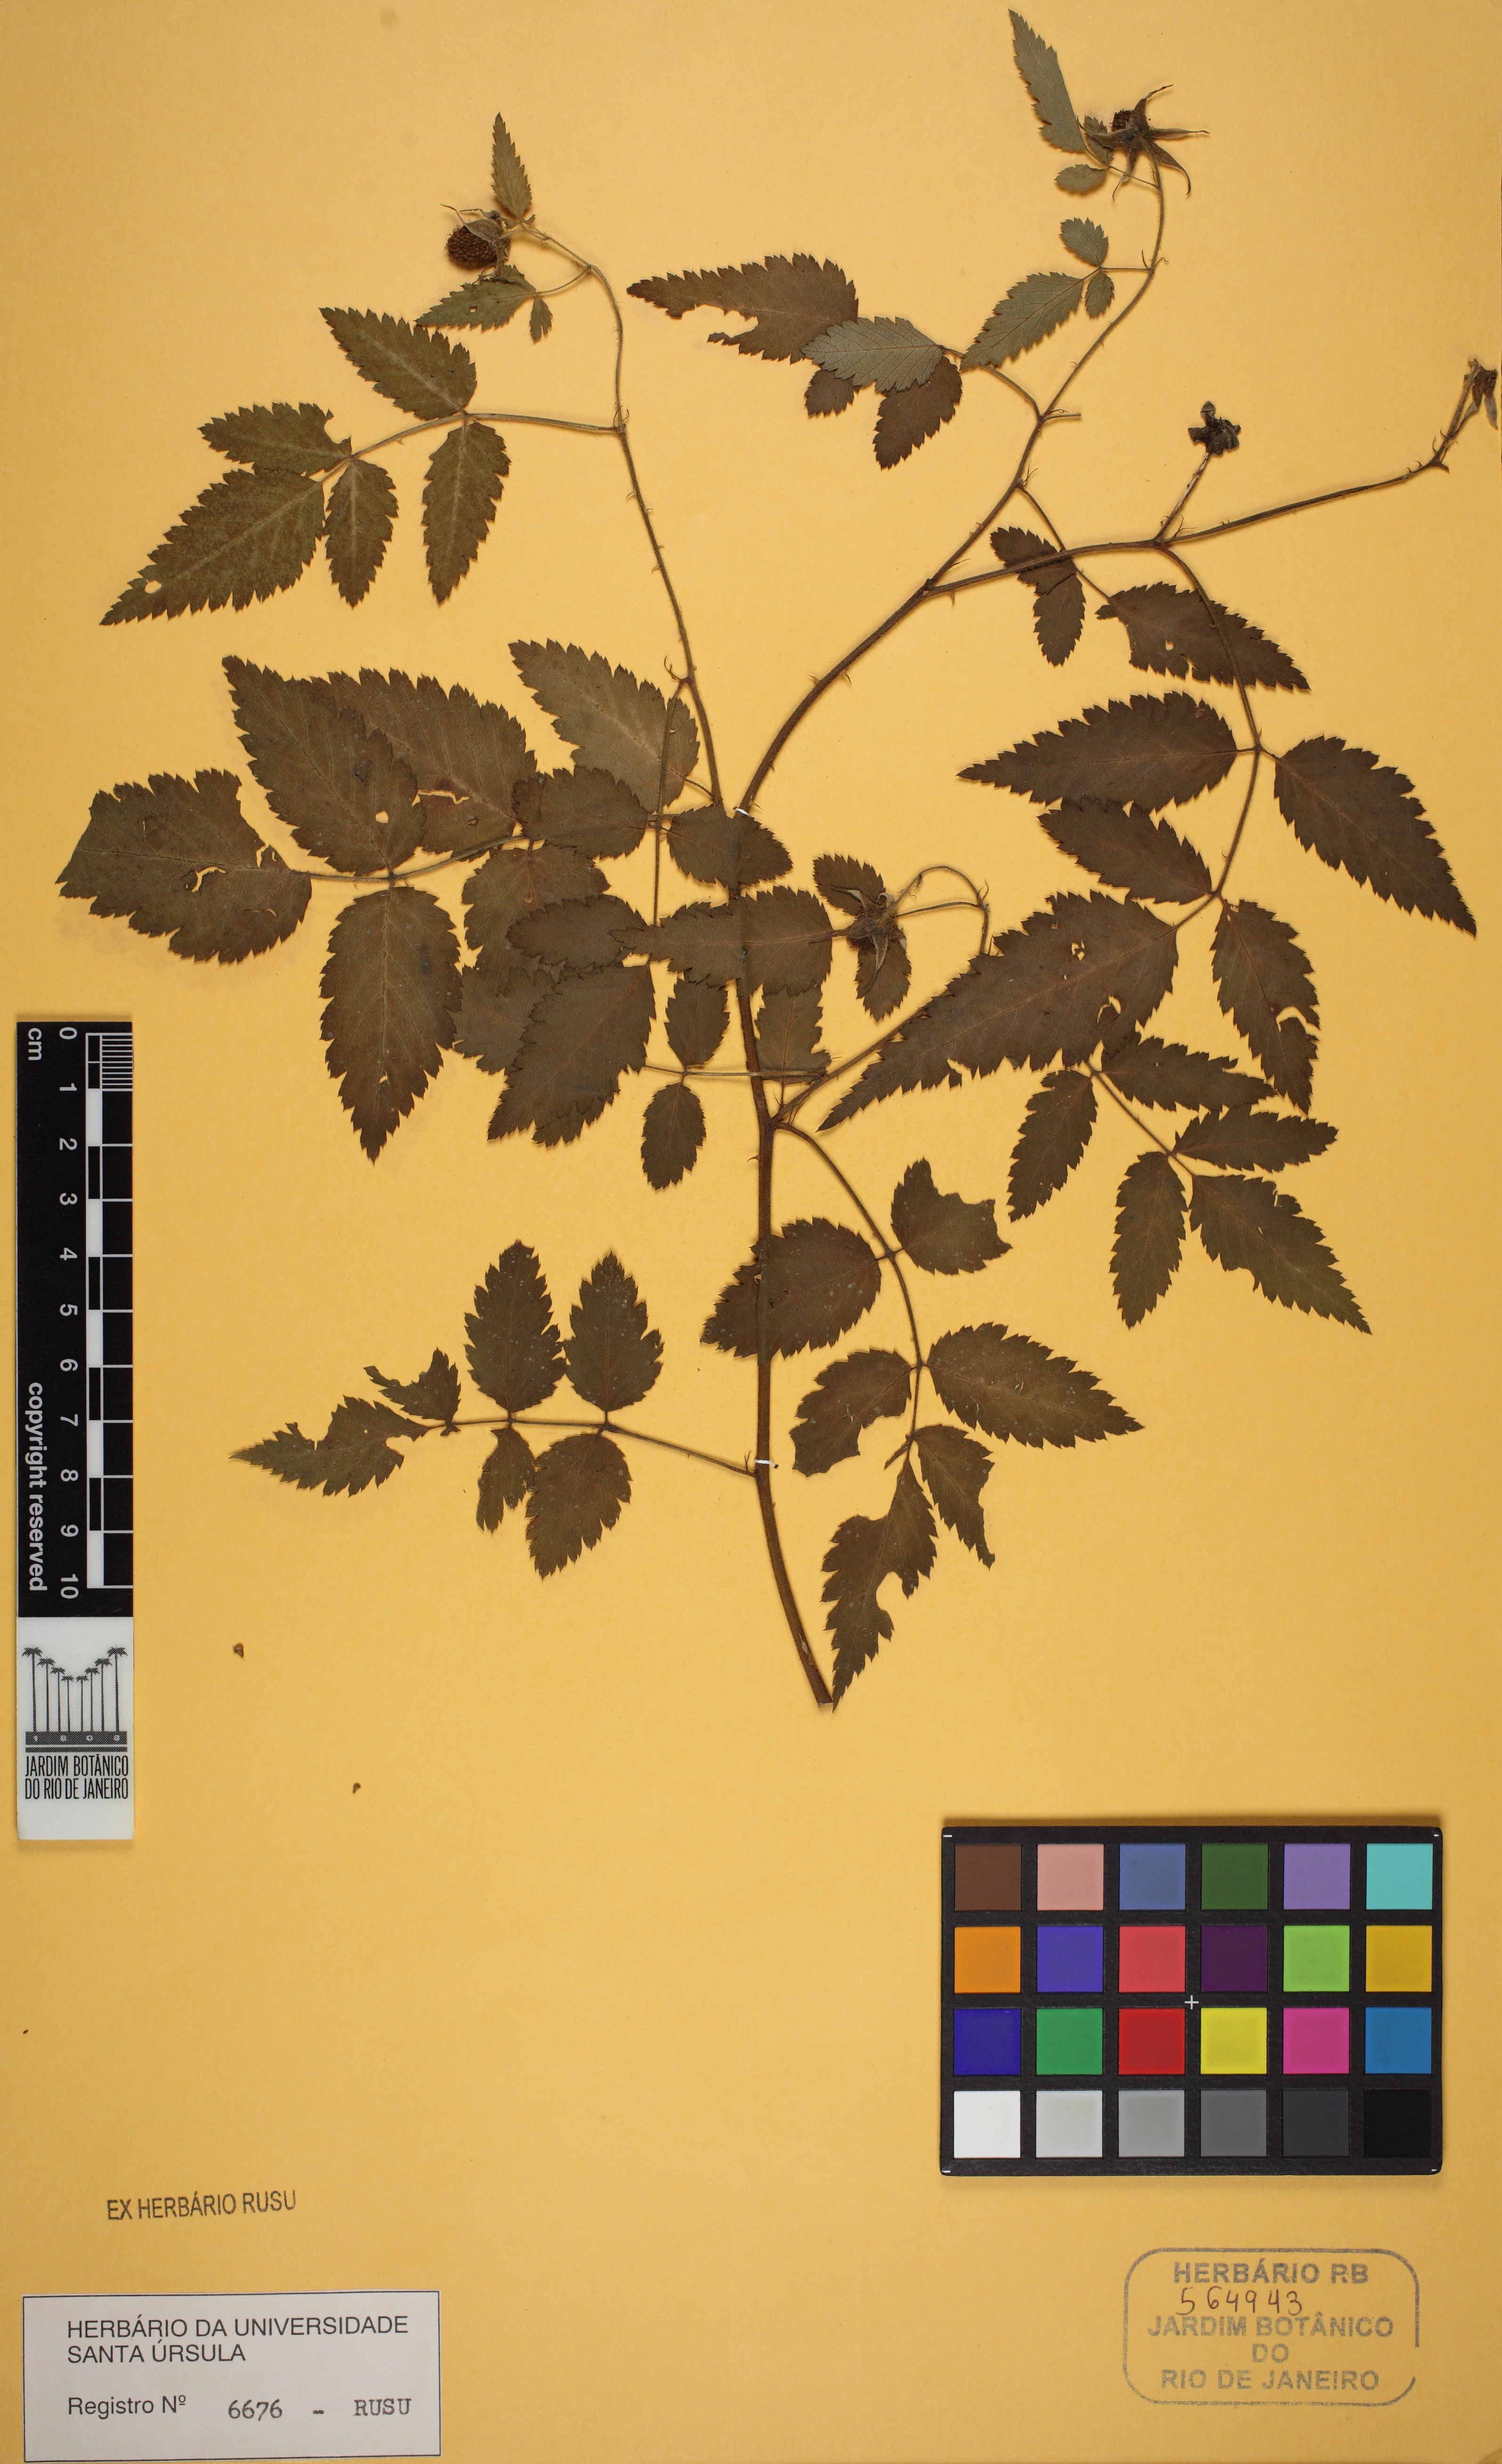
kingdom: Plantae
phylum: Tracheophyta
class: Magnoliopsida
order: Sapindales
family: Meliaceae
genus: Trichilia
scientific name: Trichilia
